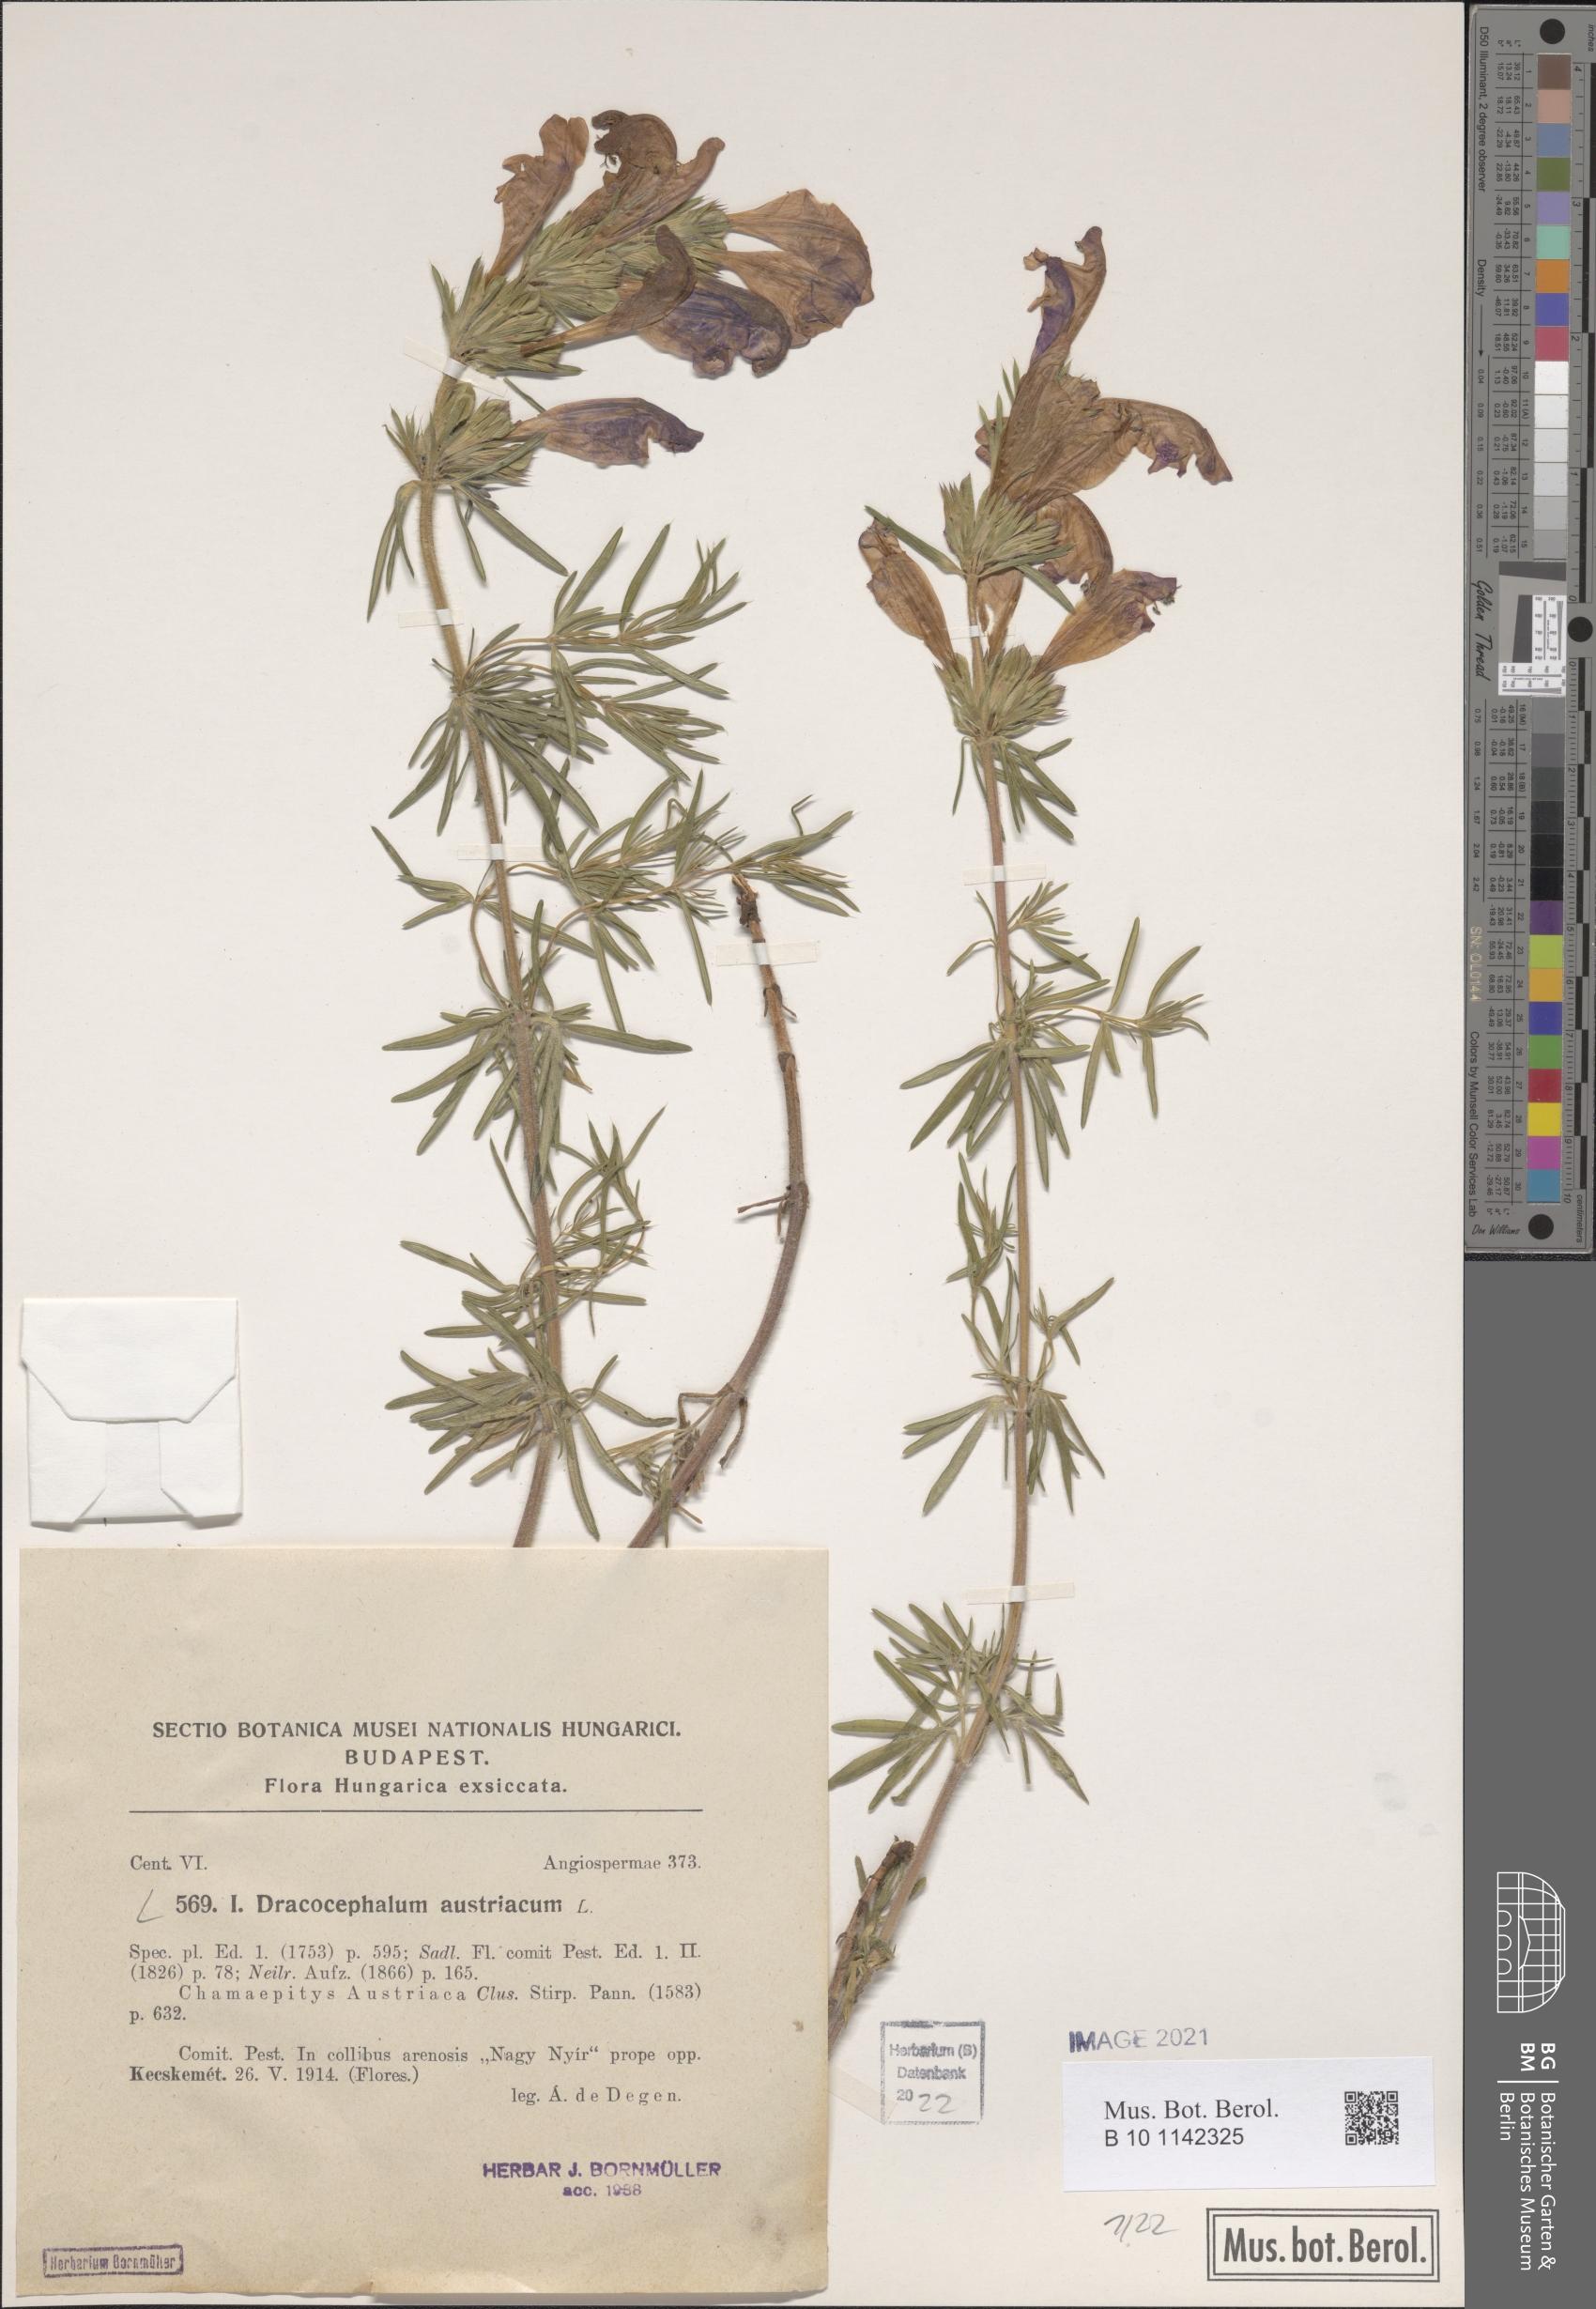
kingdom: Plantae
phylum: Tracheophyta
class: Magnoliopsida
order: Lamiales
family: Lamiaceae
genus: Dracocephalum
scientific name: Dracocephalum austriacum
